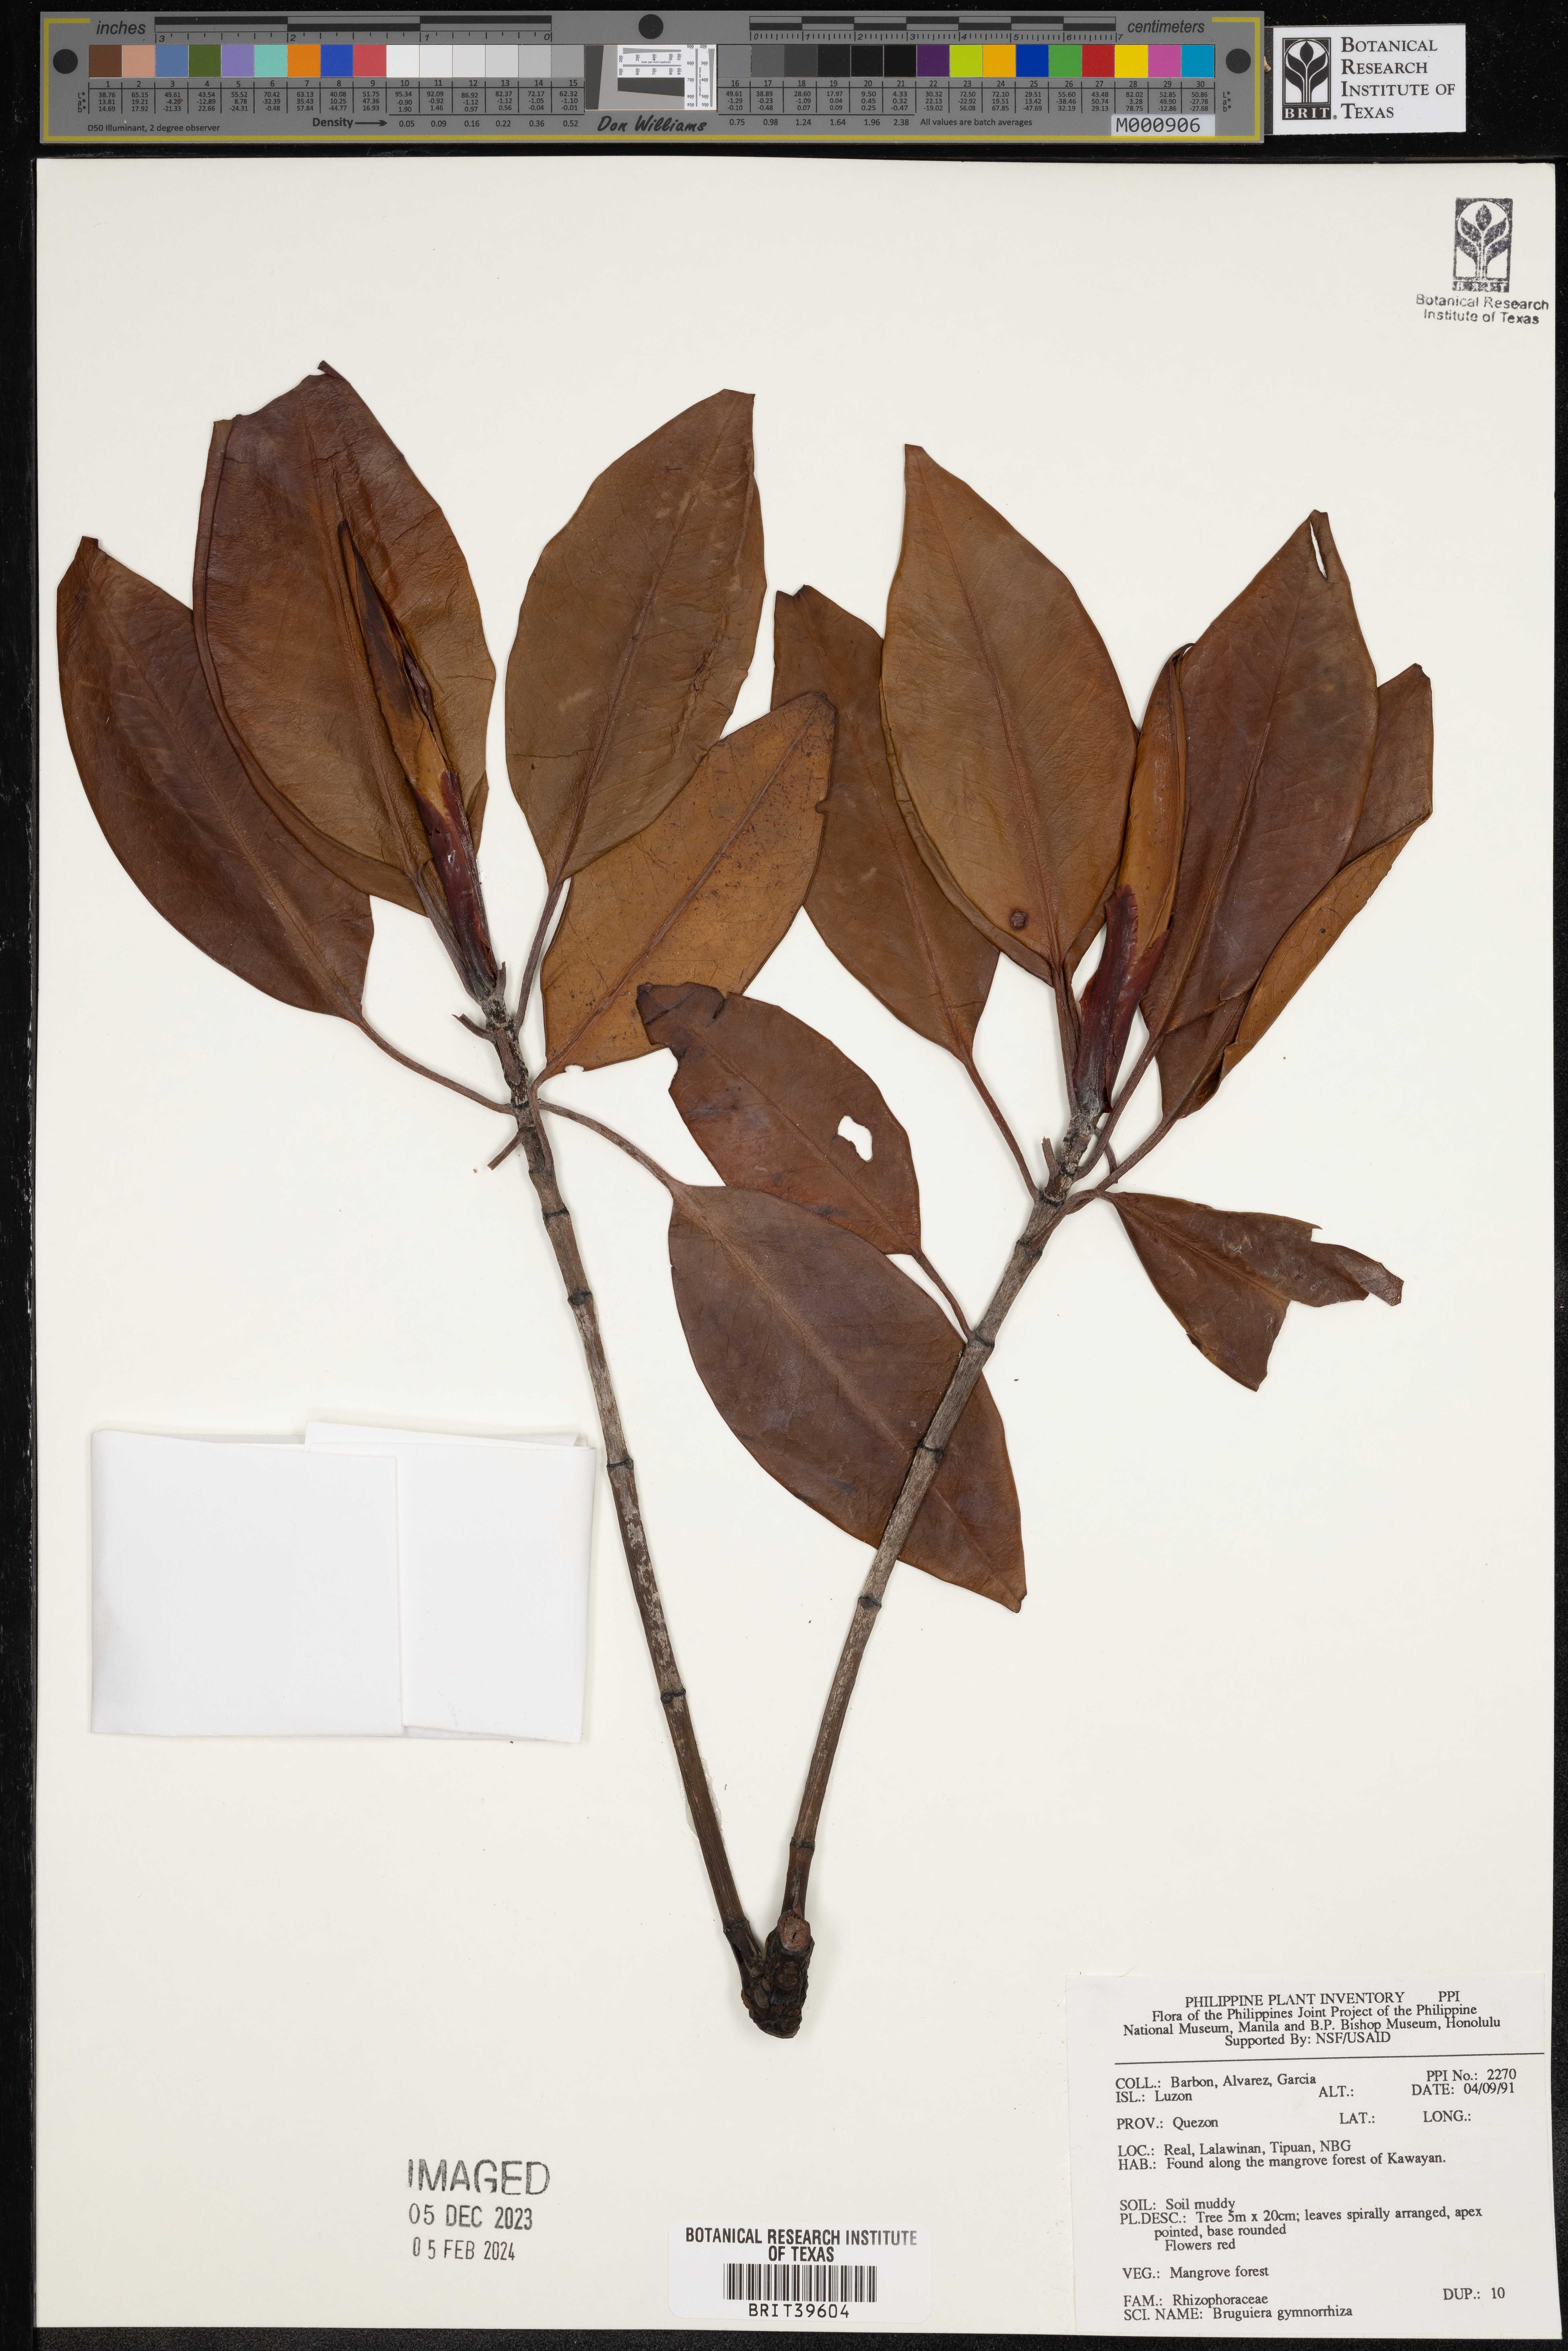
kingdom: Plantae
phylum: Tracheophyta
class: Magnoliopsida
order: Malpighiales
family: Rhizophoraceae
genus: Bruguiera
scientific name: Bruguiera gymnorhiza
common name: Oriental mangrove
